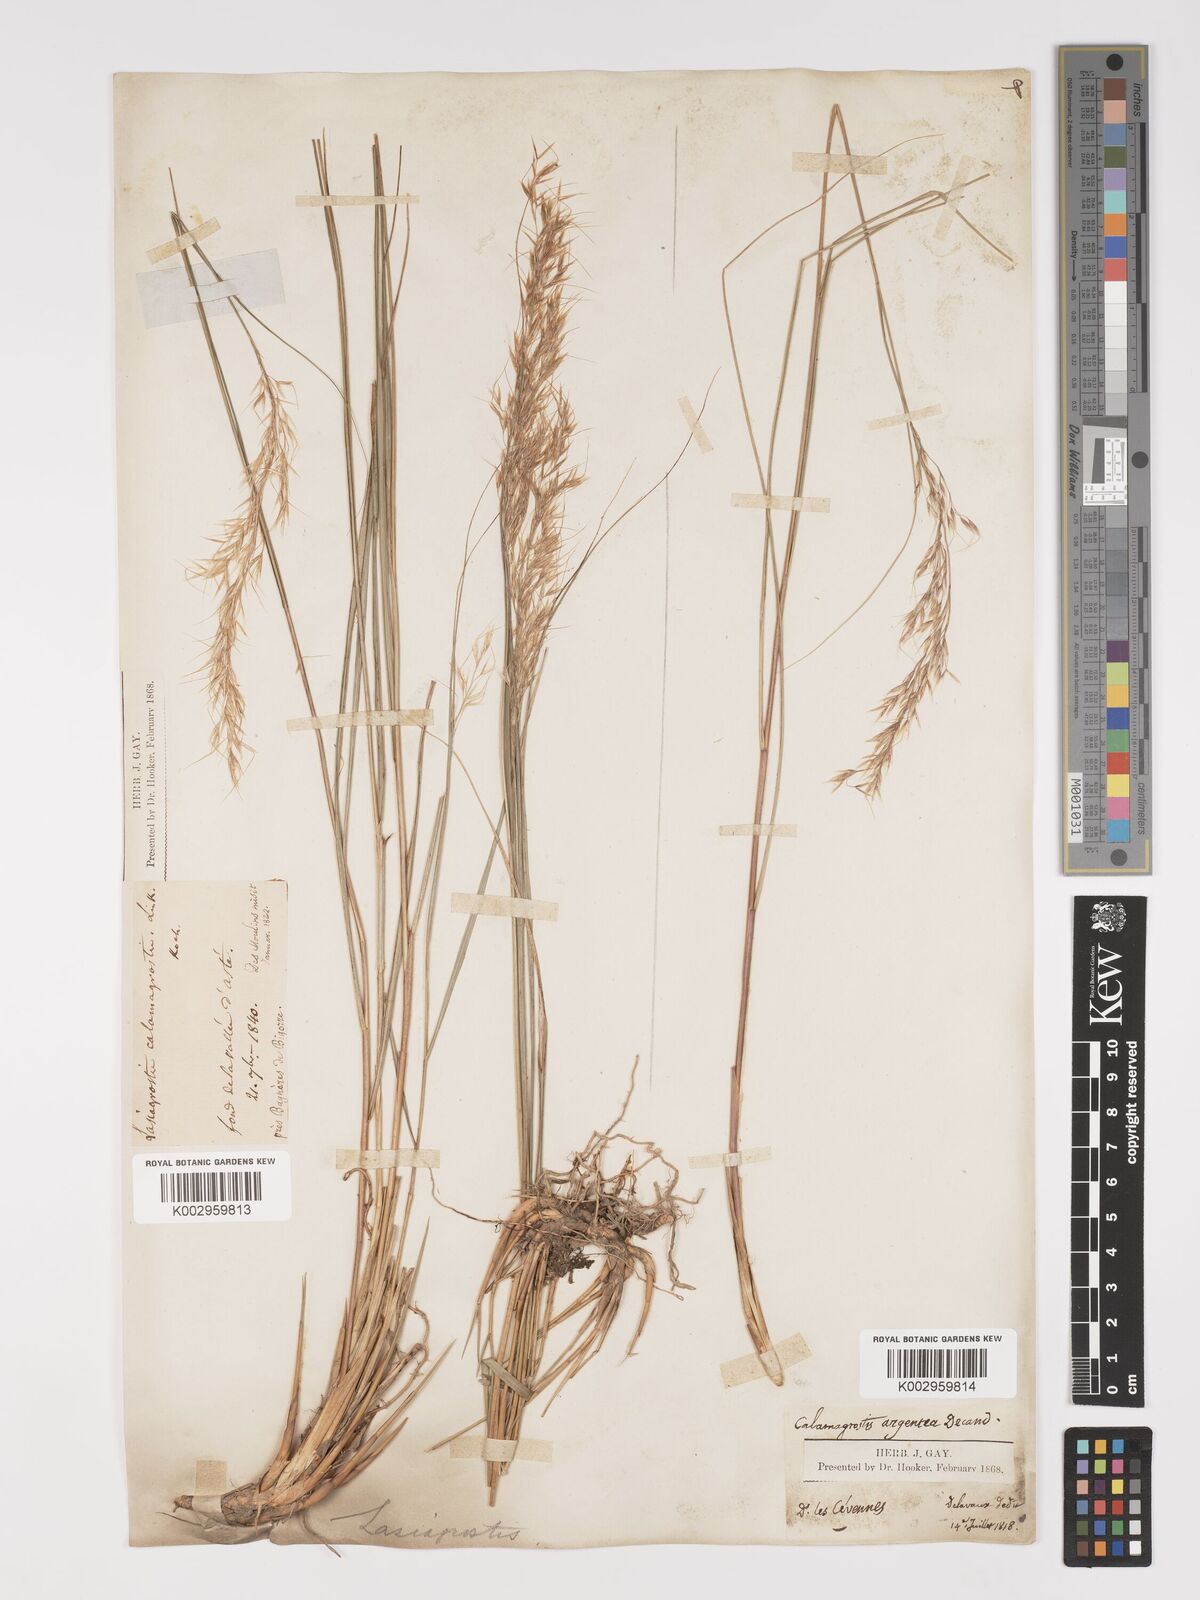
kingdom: Plantae
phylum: Tracheophyta
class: Liliopsida
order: Poales
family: Poaceae
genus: Achnatherum
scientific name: Achnatherum calamagrostis
